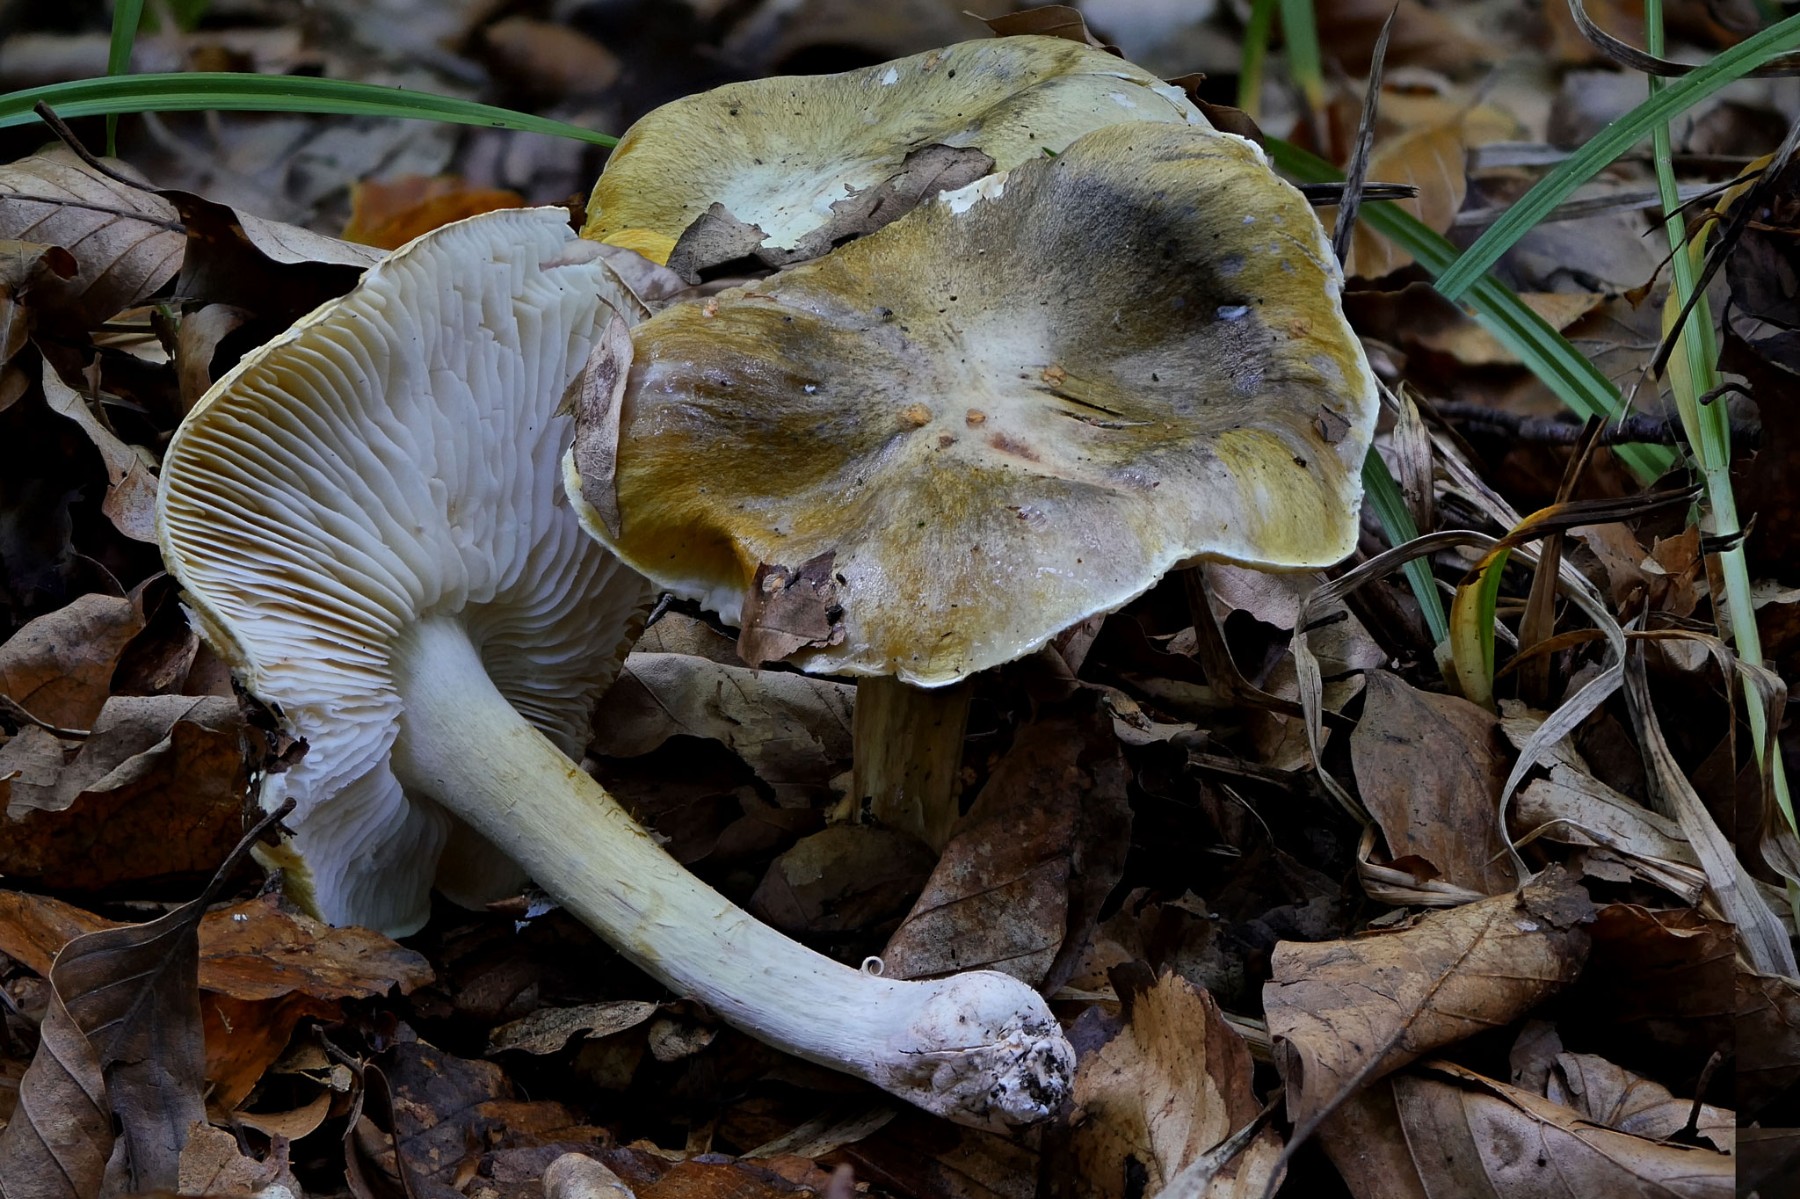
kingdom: Fungi
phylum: Basidiomycota
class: Agaricomycetes
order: Agaricales
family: Tricholomataceae
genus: Tricholoma
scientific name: Tricholoma sejunctum
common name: grøngul ridderhat
